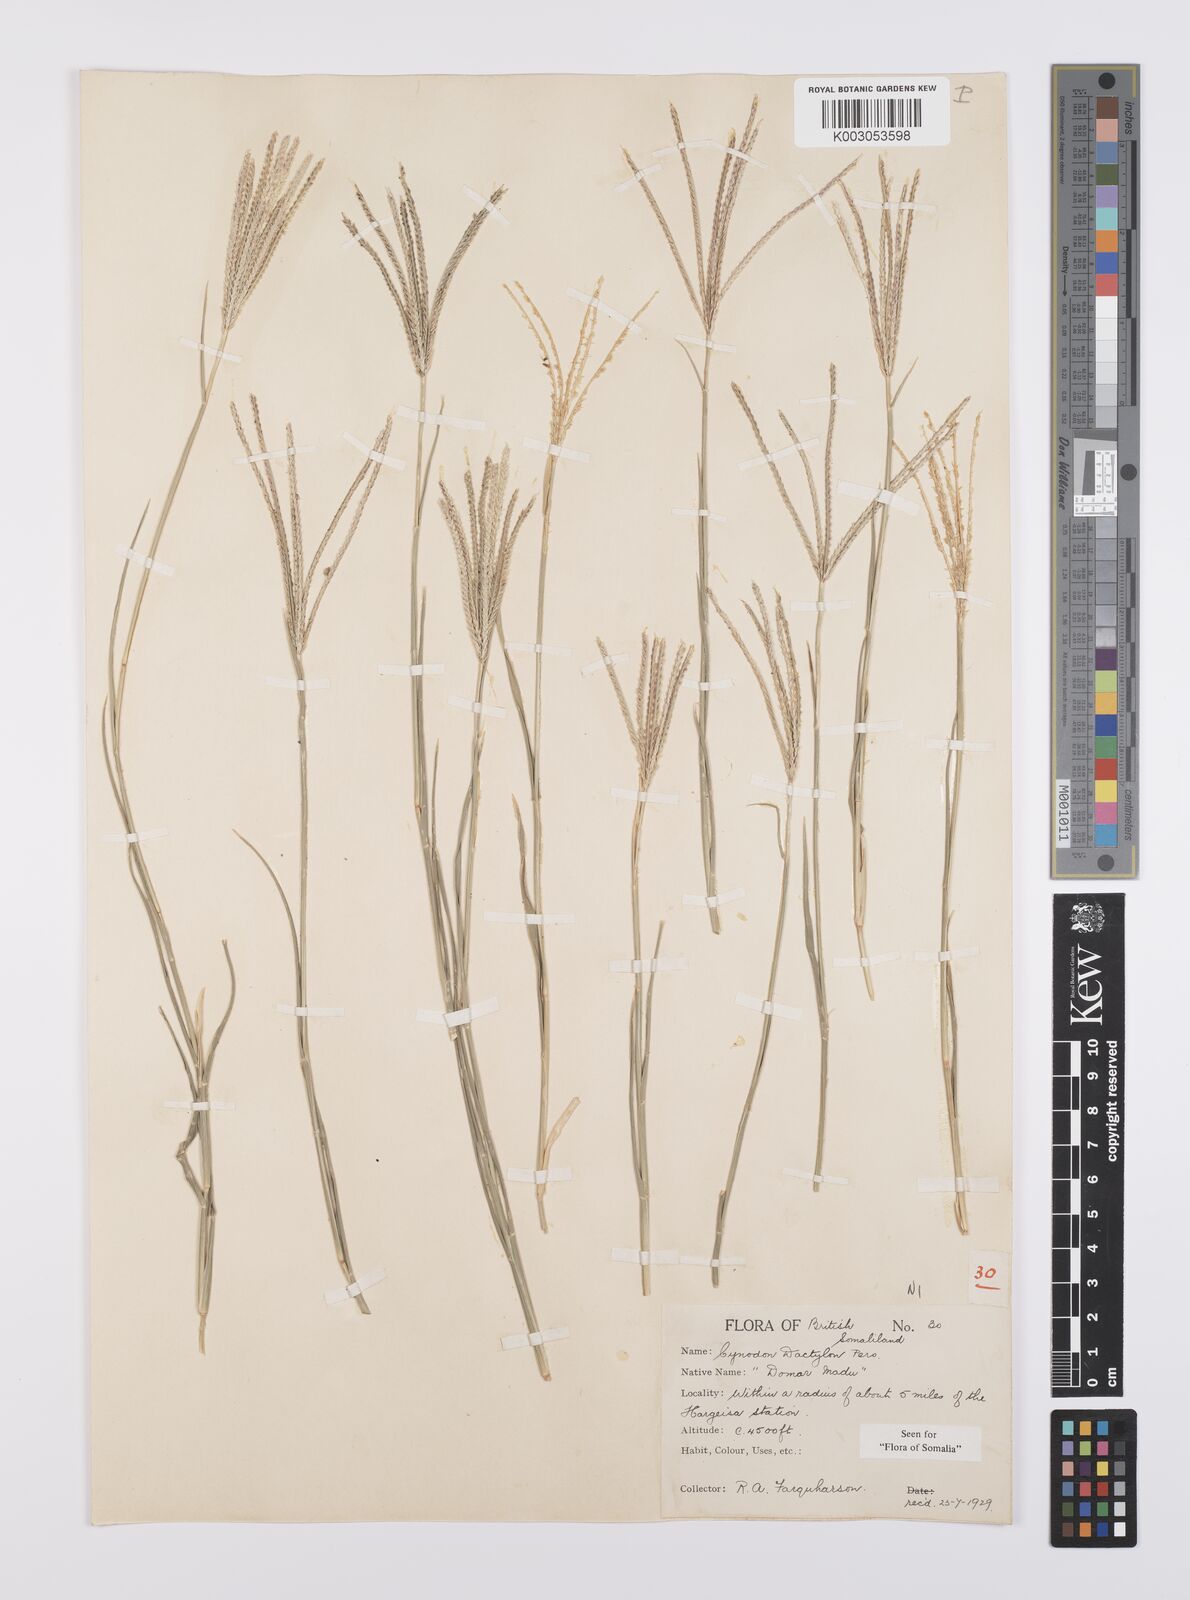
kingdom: Plantae
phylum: Tracheophyta
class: Liliopsida
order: Poales
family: Poaceae
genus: Cynodon
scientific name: Cynodon dactylon
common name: Bermuda grass
